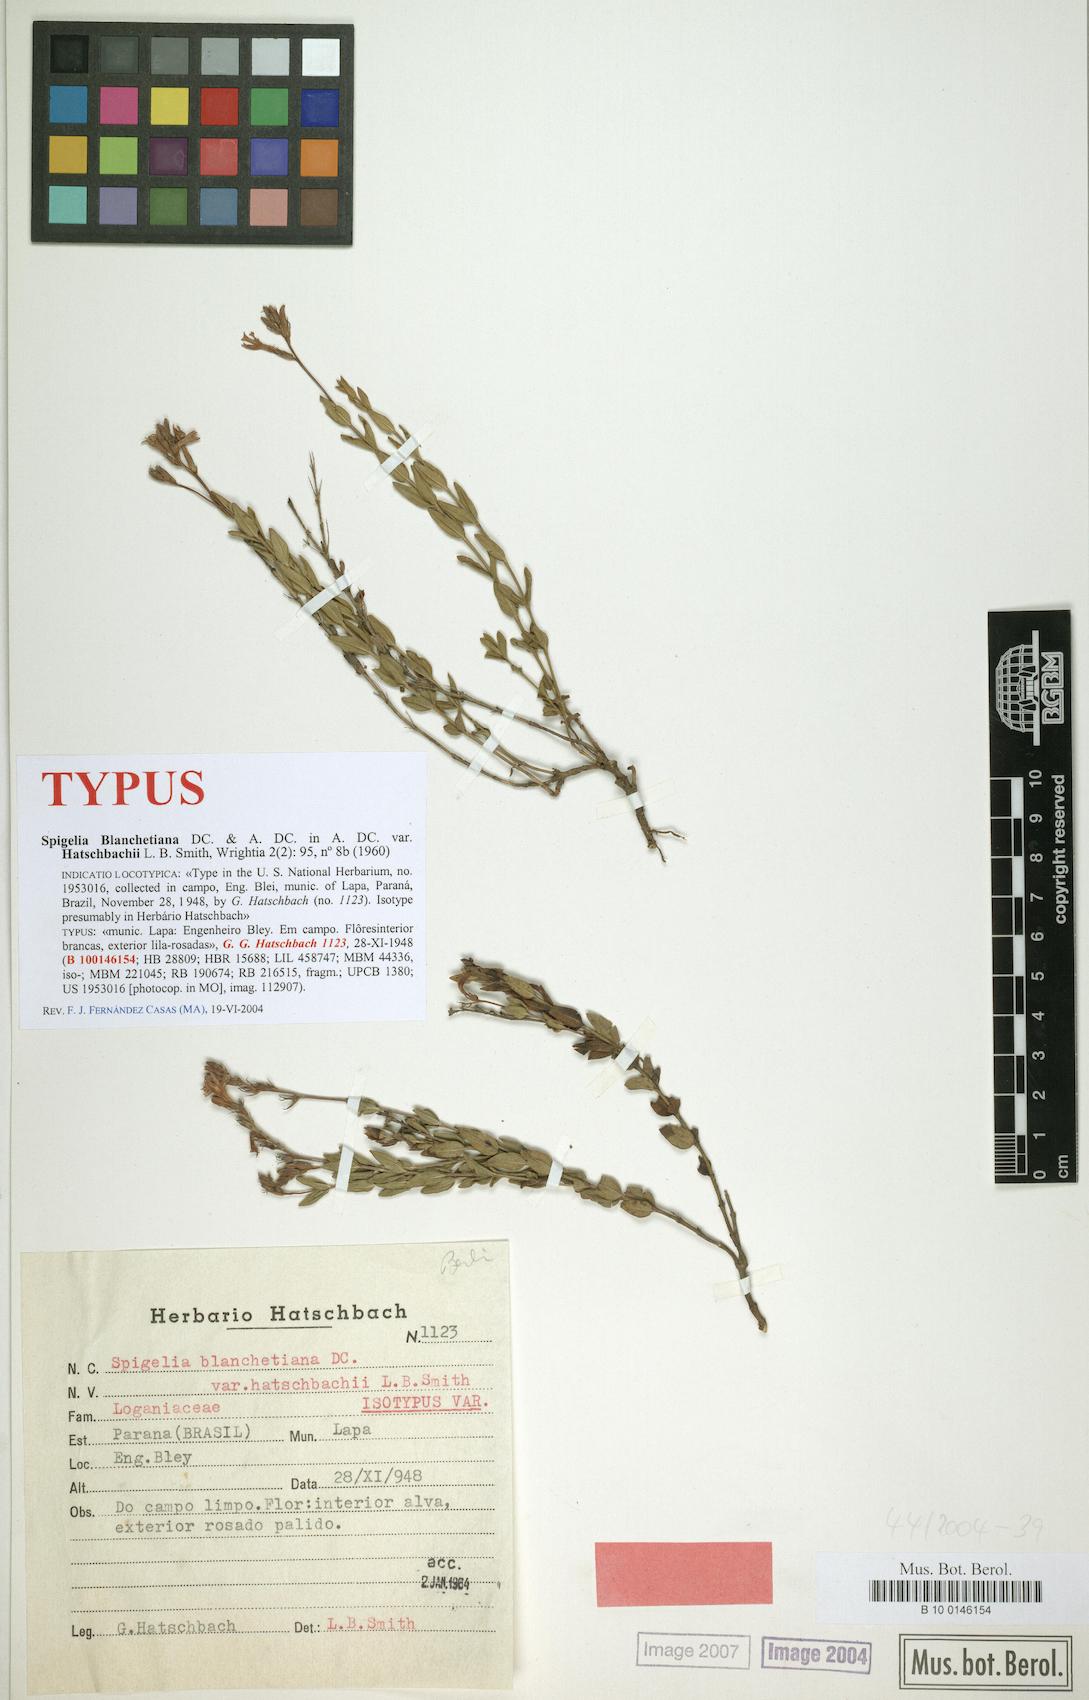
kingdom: Plantae
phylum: Tracheophyta
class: Magnoliopsida
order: Gentianales
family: Loganiaceae
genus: Spigelia
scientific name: Spigelia blanchetiana
